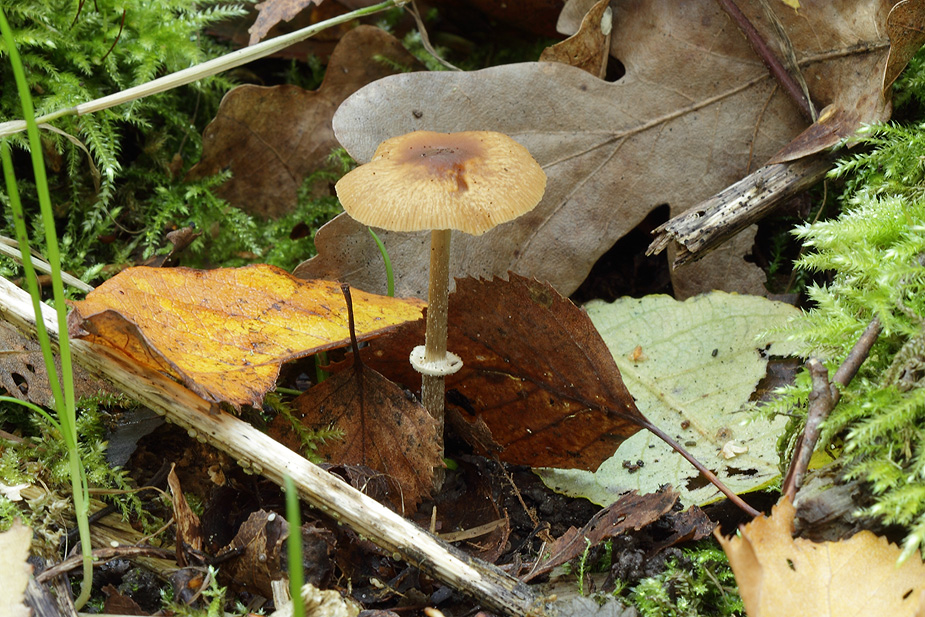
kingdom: Fungi
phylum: Basidiomycota
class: Agaricomycetes
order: Agaricales
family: Bolbitiaceae
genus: Conocybe
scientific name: Conocybe arrhenii
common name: ring-dansehat
